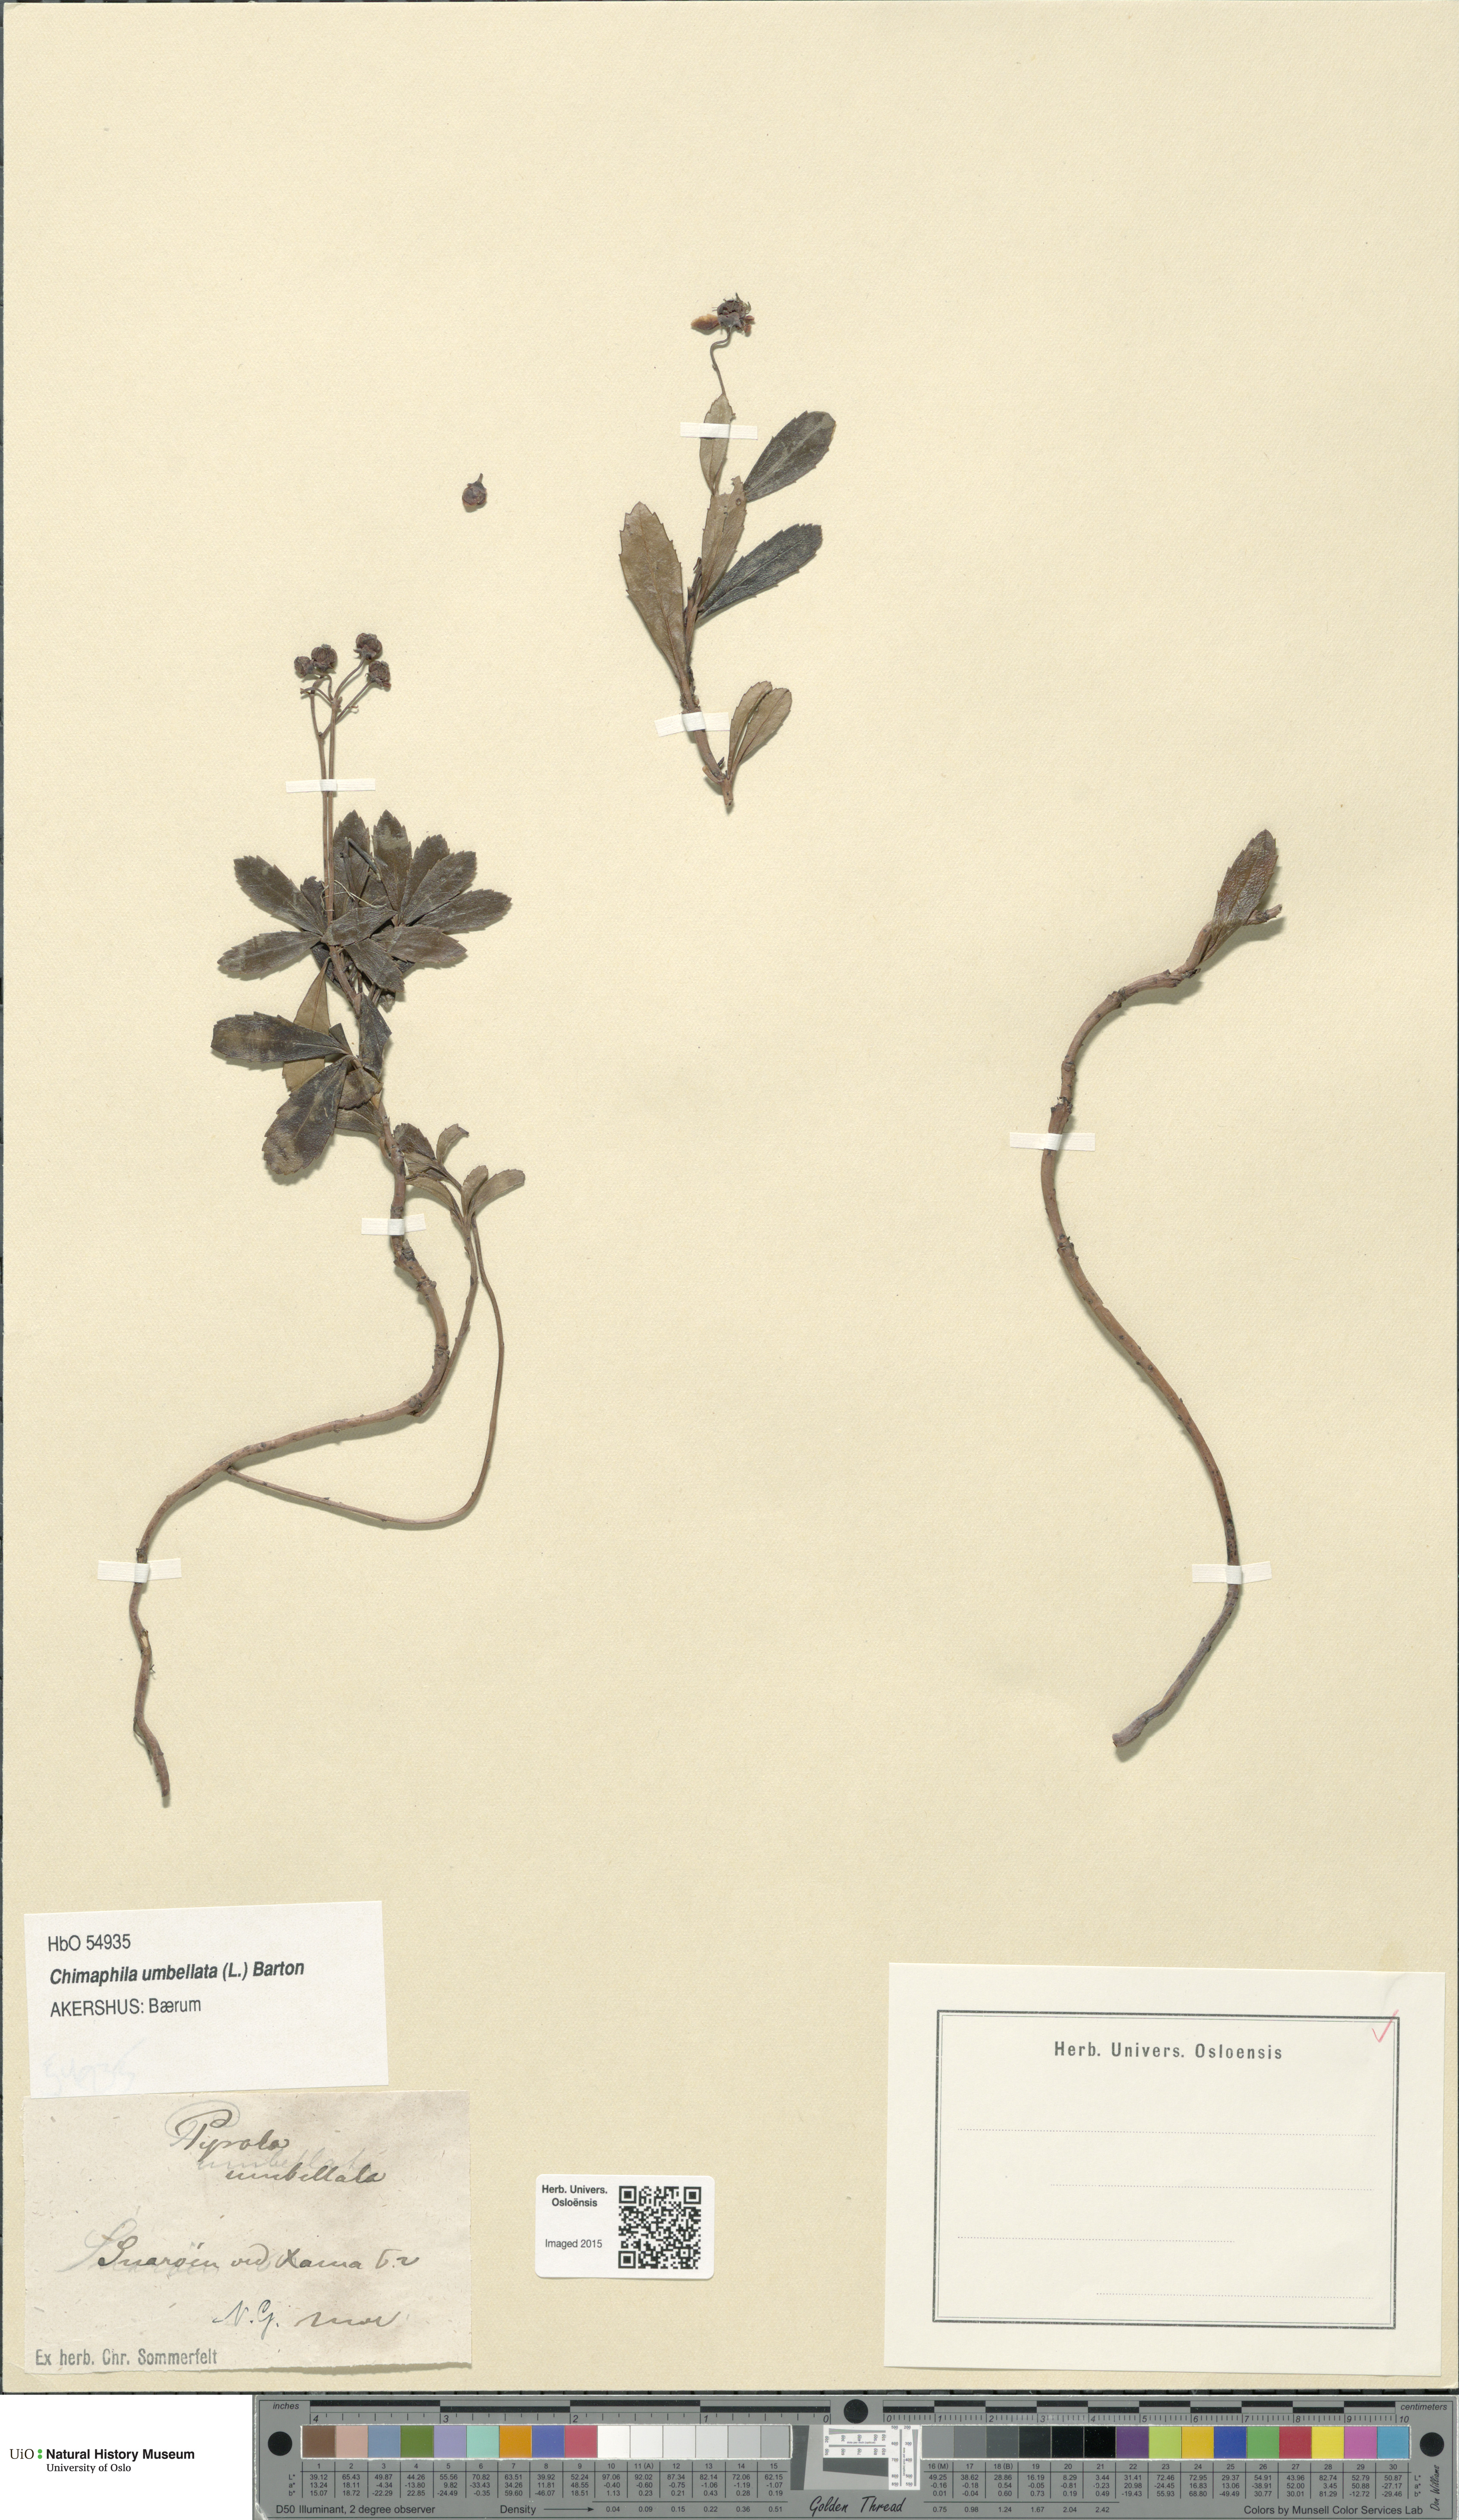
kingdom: Plantae
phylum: Tracheophyta
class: Magnoliopsida
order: Ericales
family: Ericaceae
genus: Chimaphila
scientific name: Chimaphila umbellata
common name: Pipsissewa
